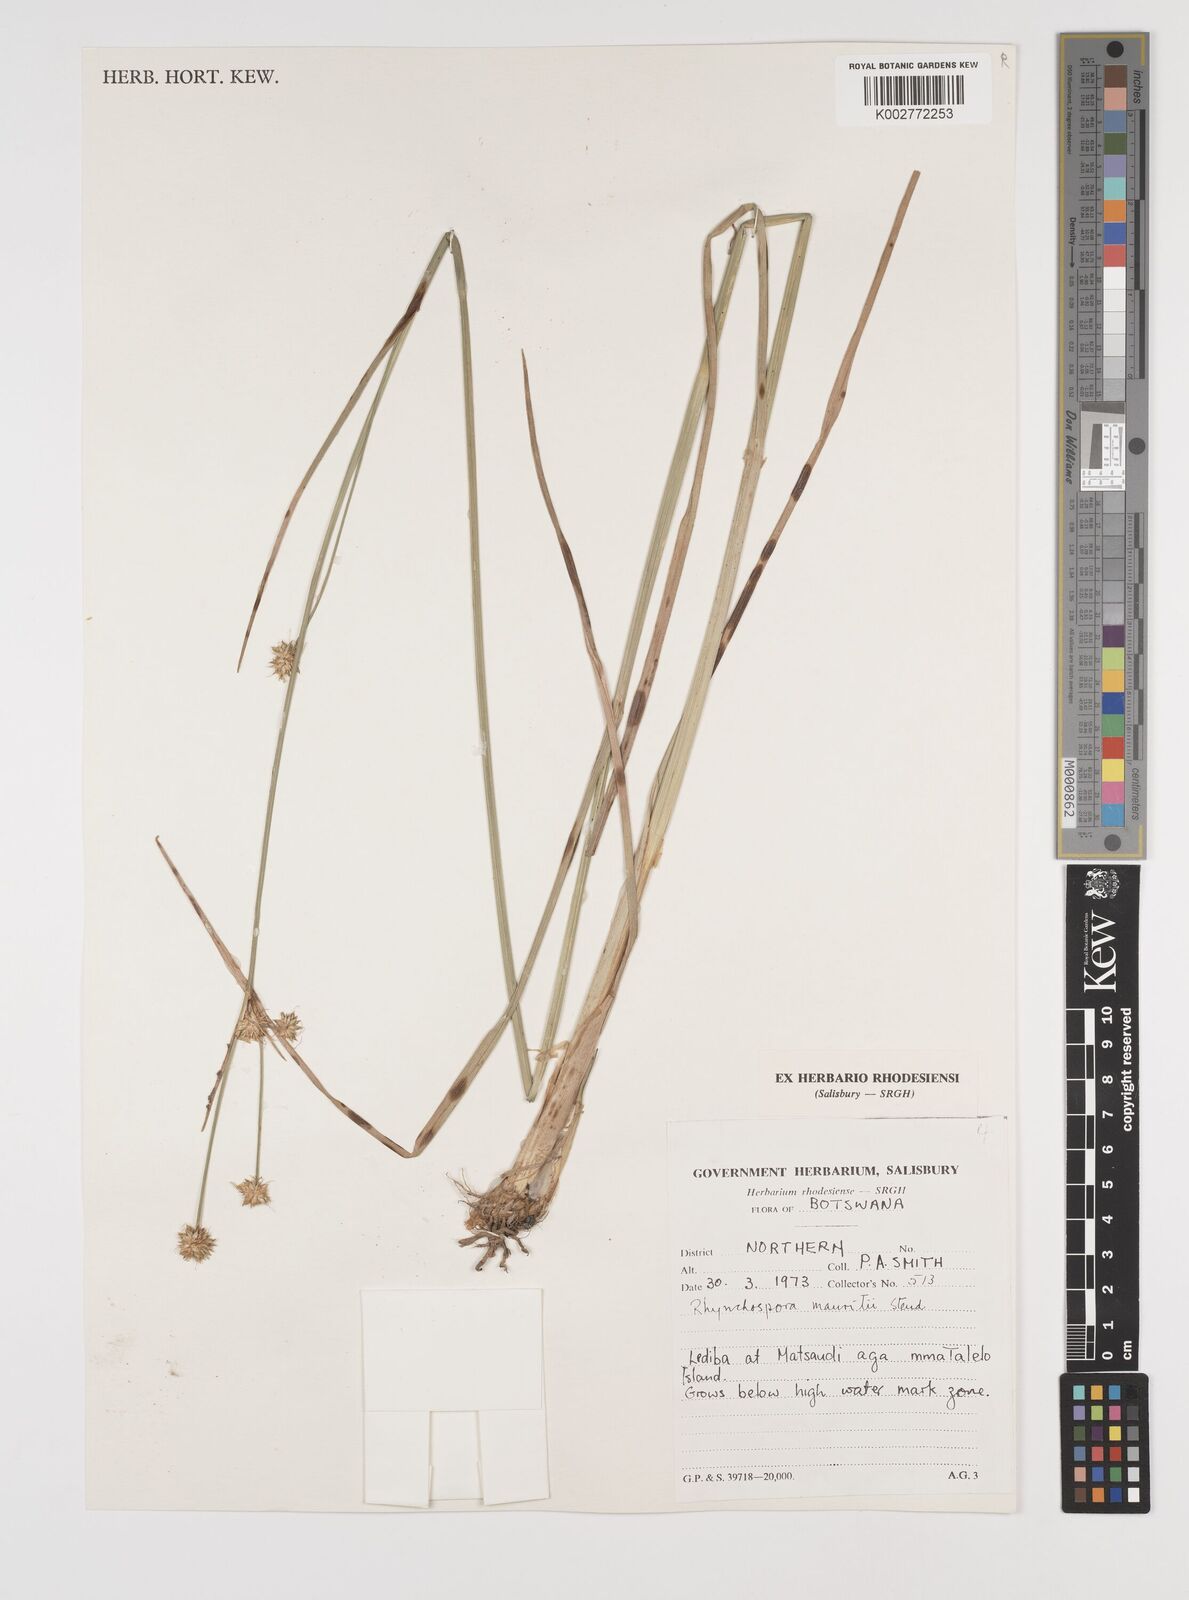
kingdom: Plantae
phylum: Tracheophyta
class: Liliopsida
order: Poales
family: Cyperaceae
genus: Rhynchospora
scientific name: Rhynchospora holoschoenoides
